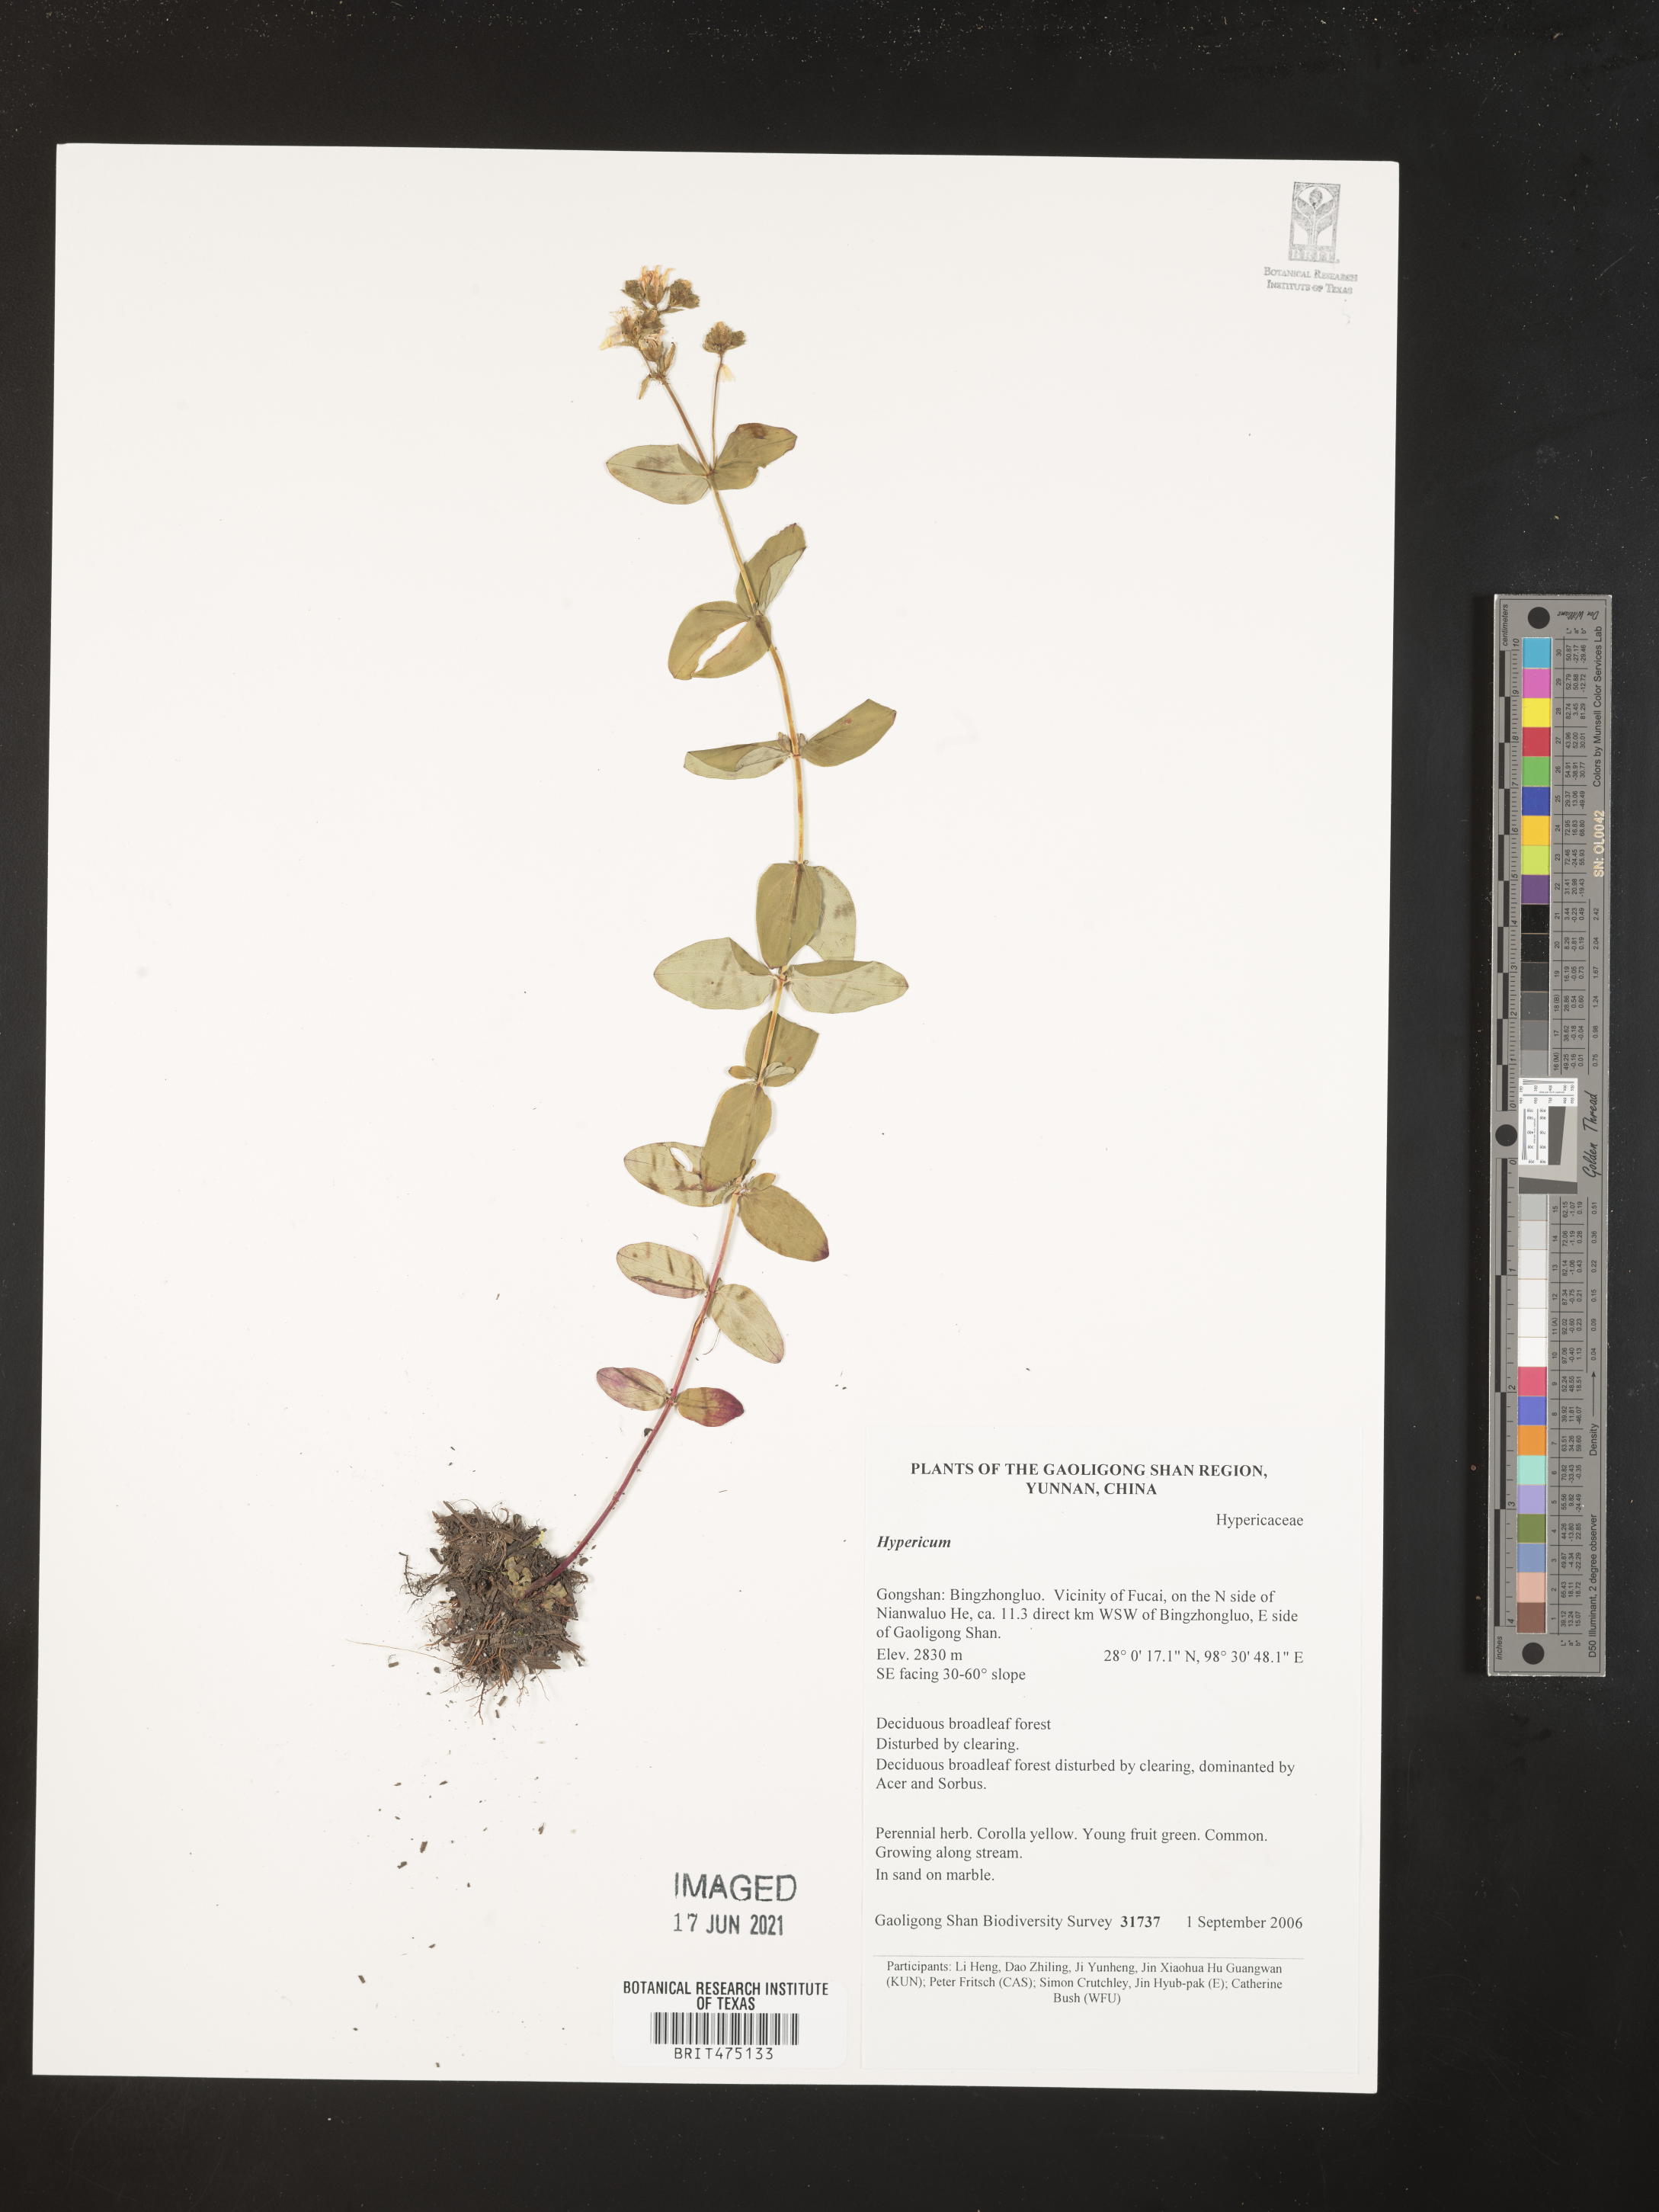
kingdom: Plantae
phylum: Tracheophyta
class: Magnoliopsida
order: Malpighiales
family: Hypericaceae
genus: Hypericum
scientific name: Hypericum
